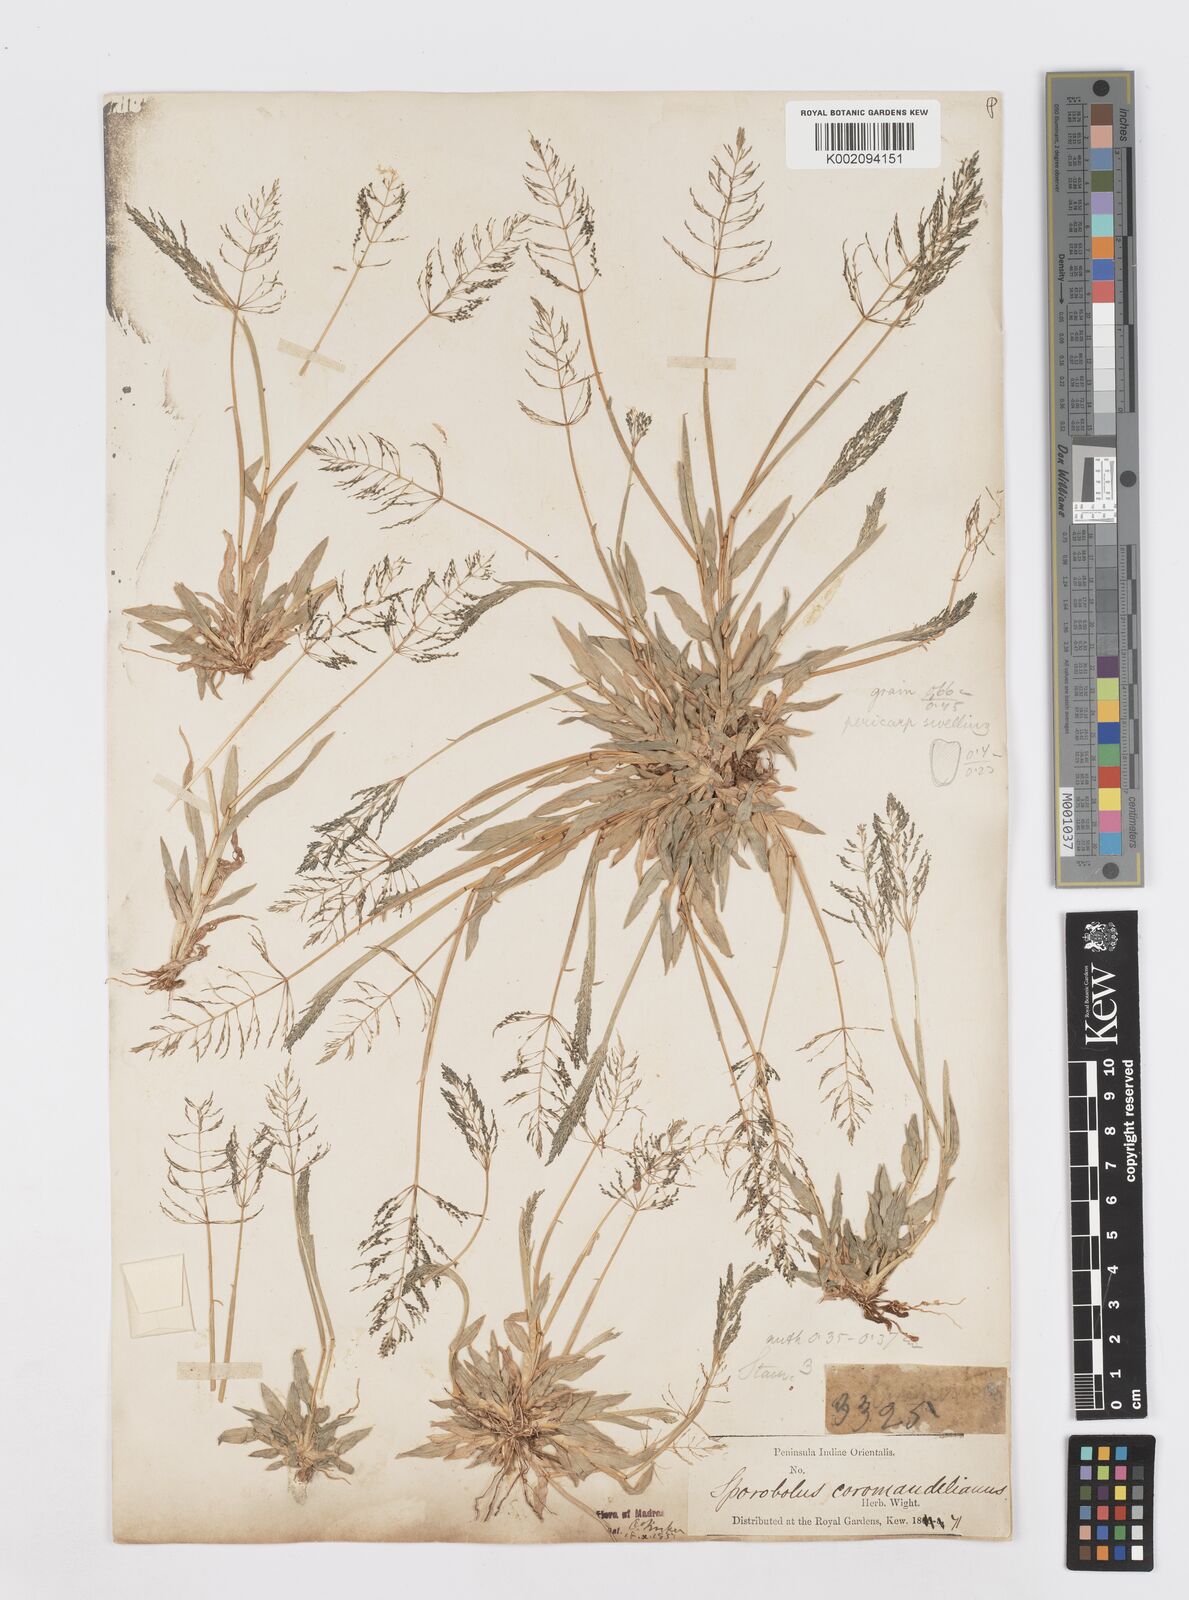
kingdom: Plantae
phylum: Tracheophyta
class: Liliopsida
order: Poales
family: Poaceae
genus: Sporobolus
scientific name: Sporobolus coromandelianus
